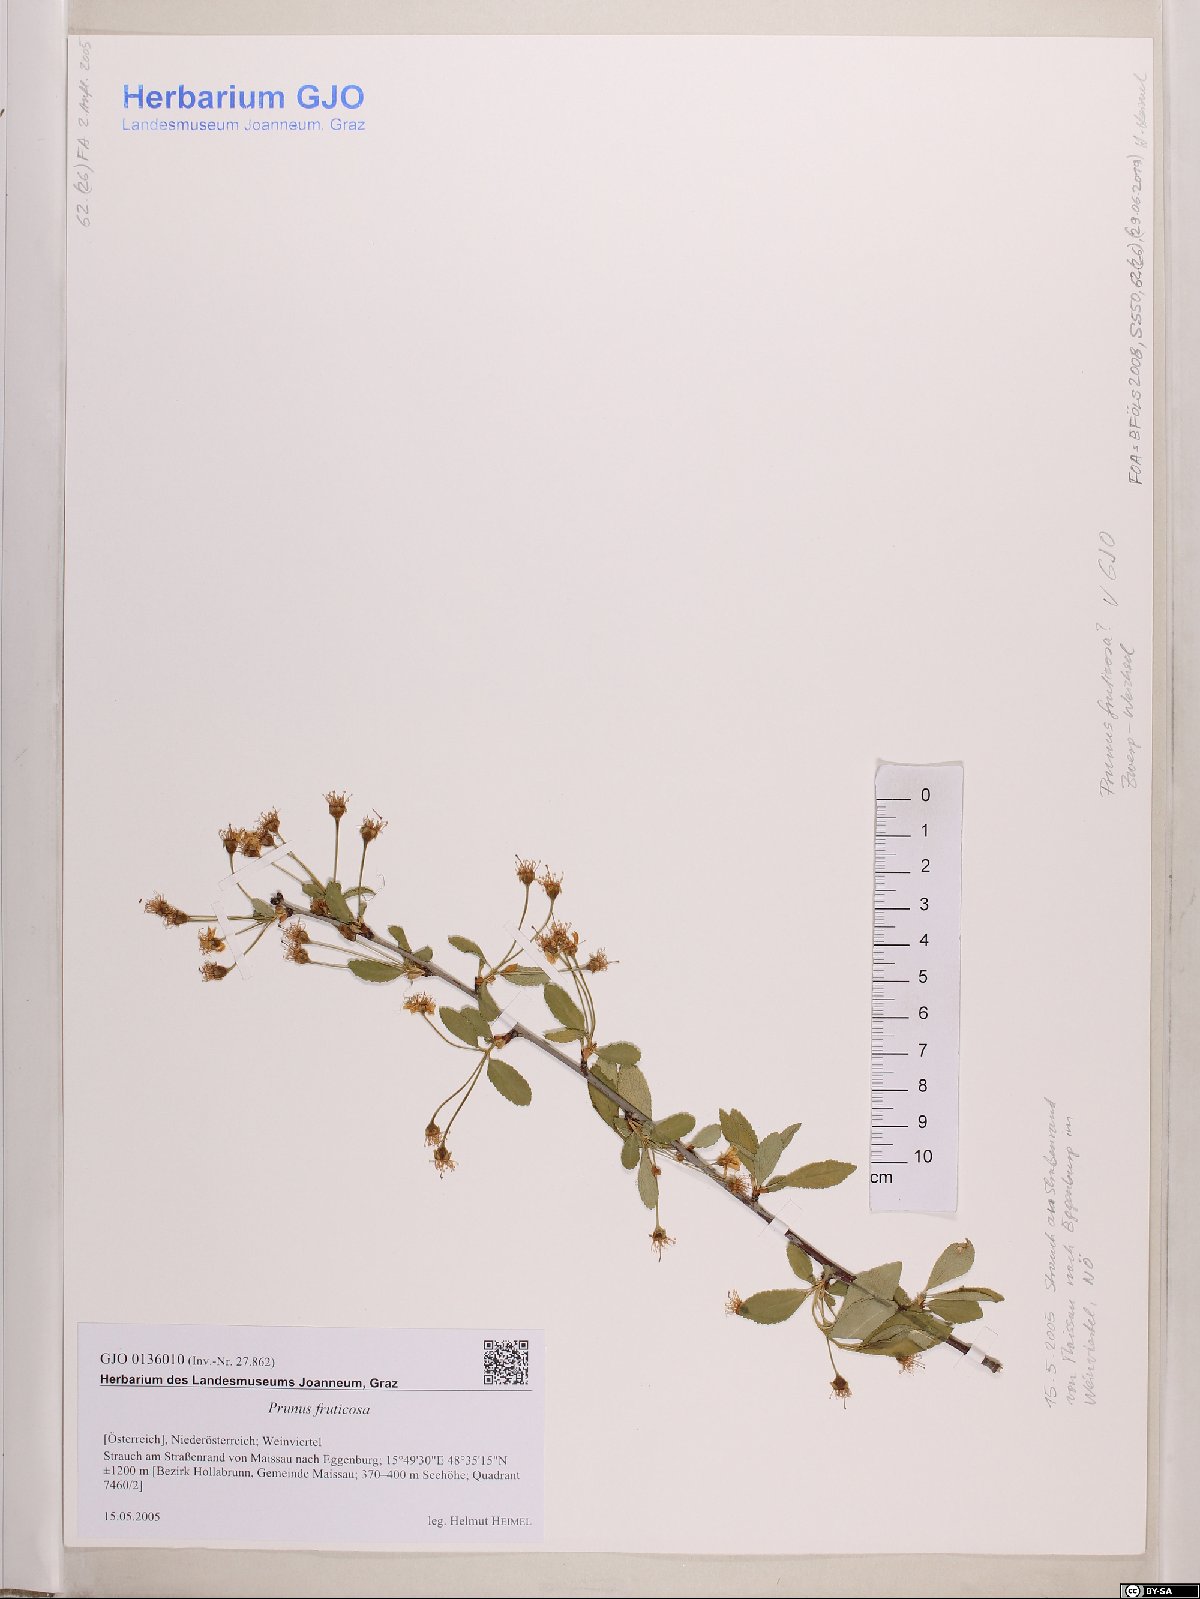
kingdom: Plantae
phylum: Tracheophyta
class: Magnoliopsida
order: Rosales
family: Rosaceae
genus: Prunus
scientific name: Prunus fruticosa
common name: European dwarf cherry
